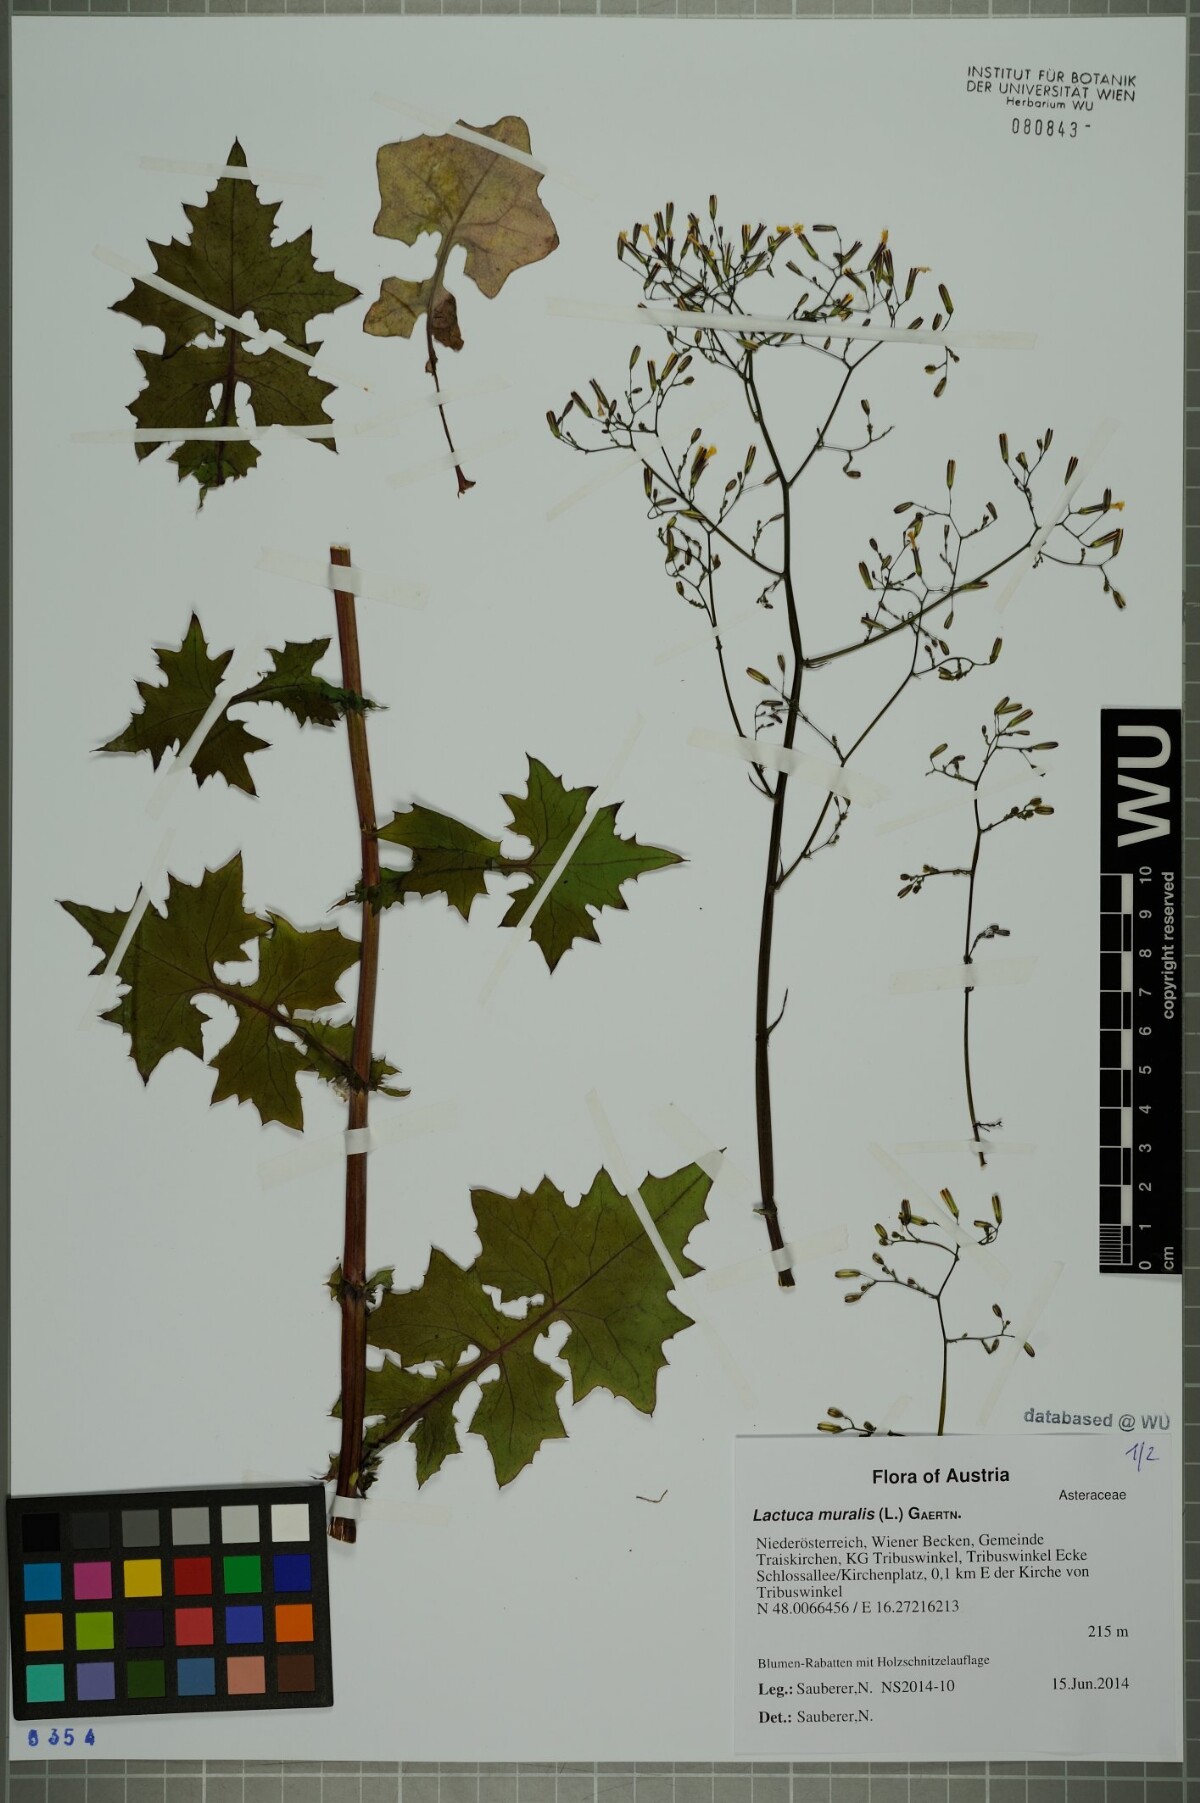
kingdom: Plantae
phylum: Tracheophyta
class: Magnoliopsida
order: Asterales
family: Asteraceae
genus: Mycelis
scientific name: Mycelis muralis
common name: Wall lettuce
